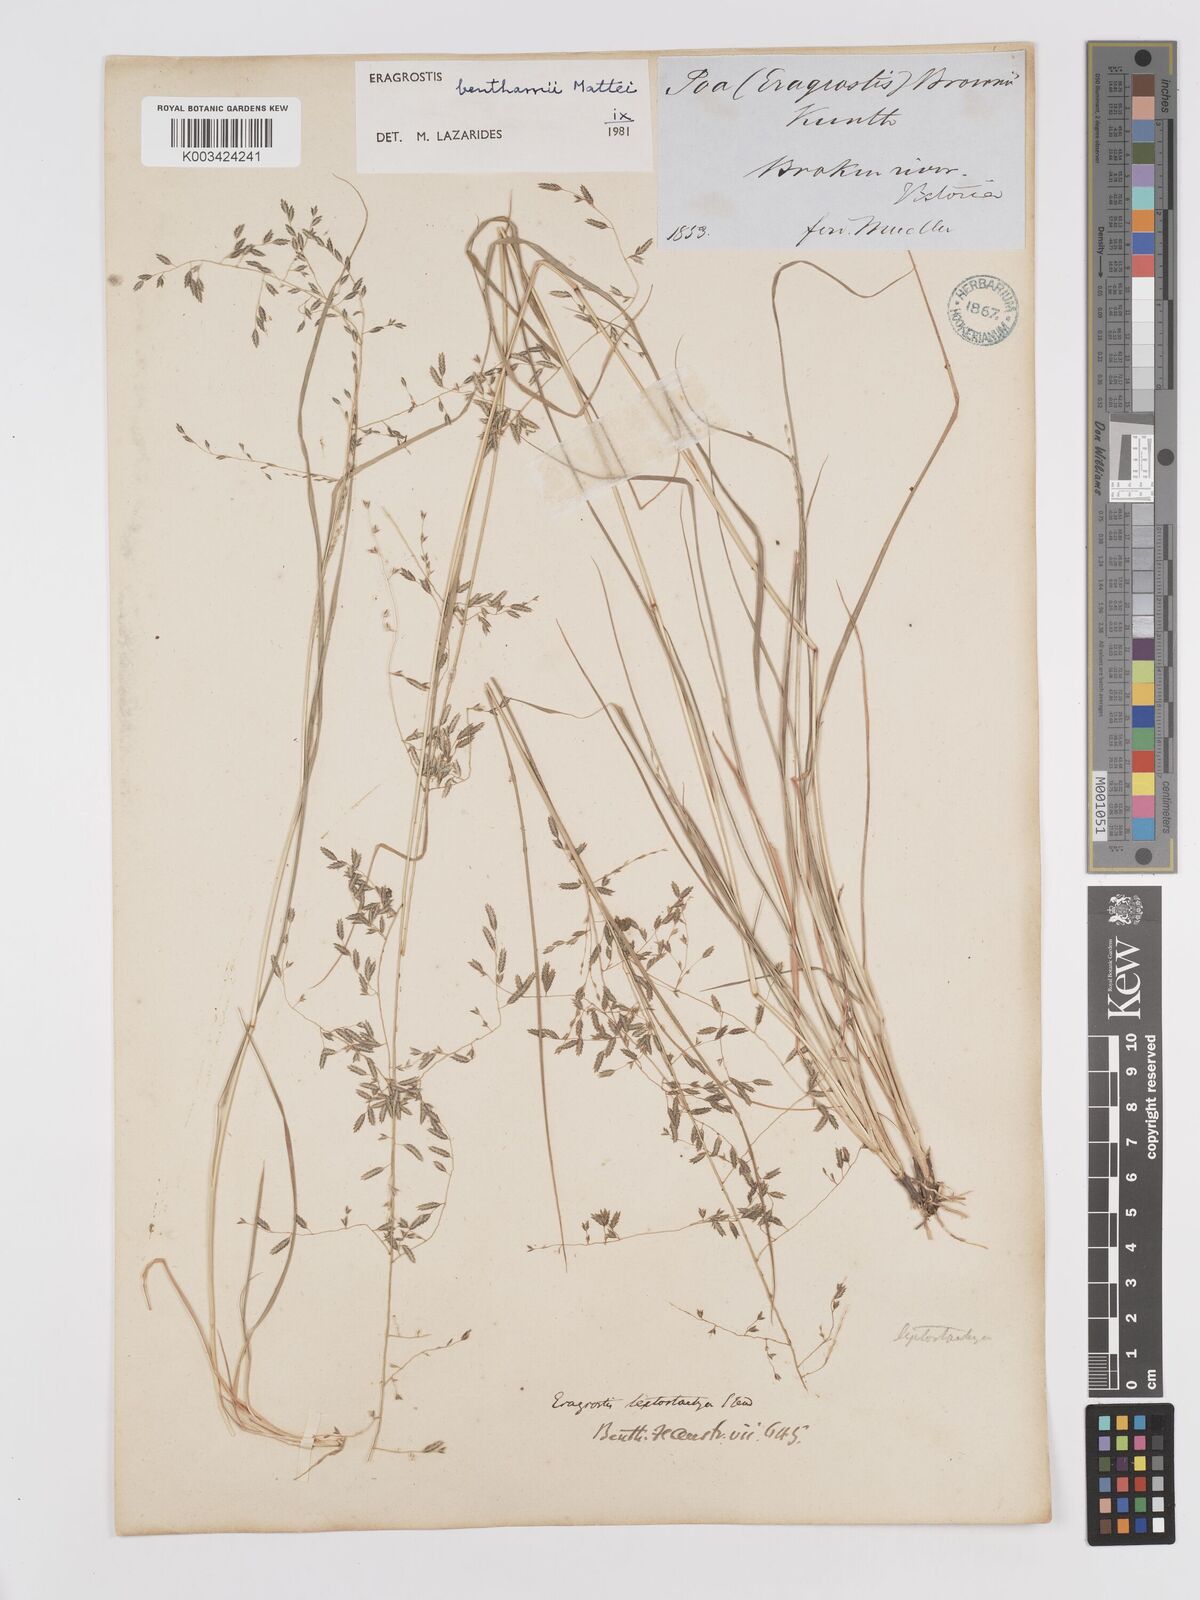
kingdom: Plantae
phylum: Tracheophyta
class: Liliopsida
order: Poales
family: Poaceae
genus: Eragrostis
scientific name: Eragrostis brownii
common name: Lovegrass
